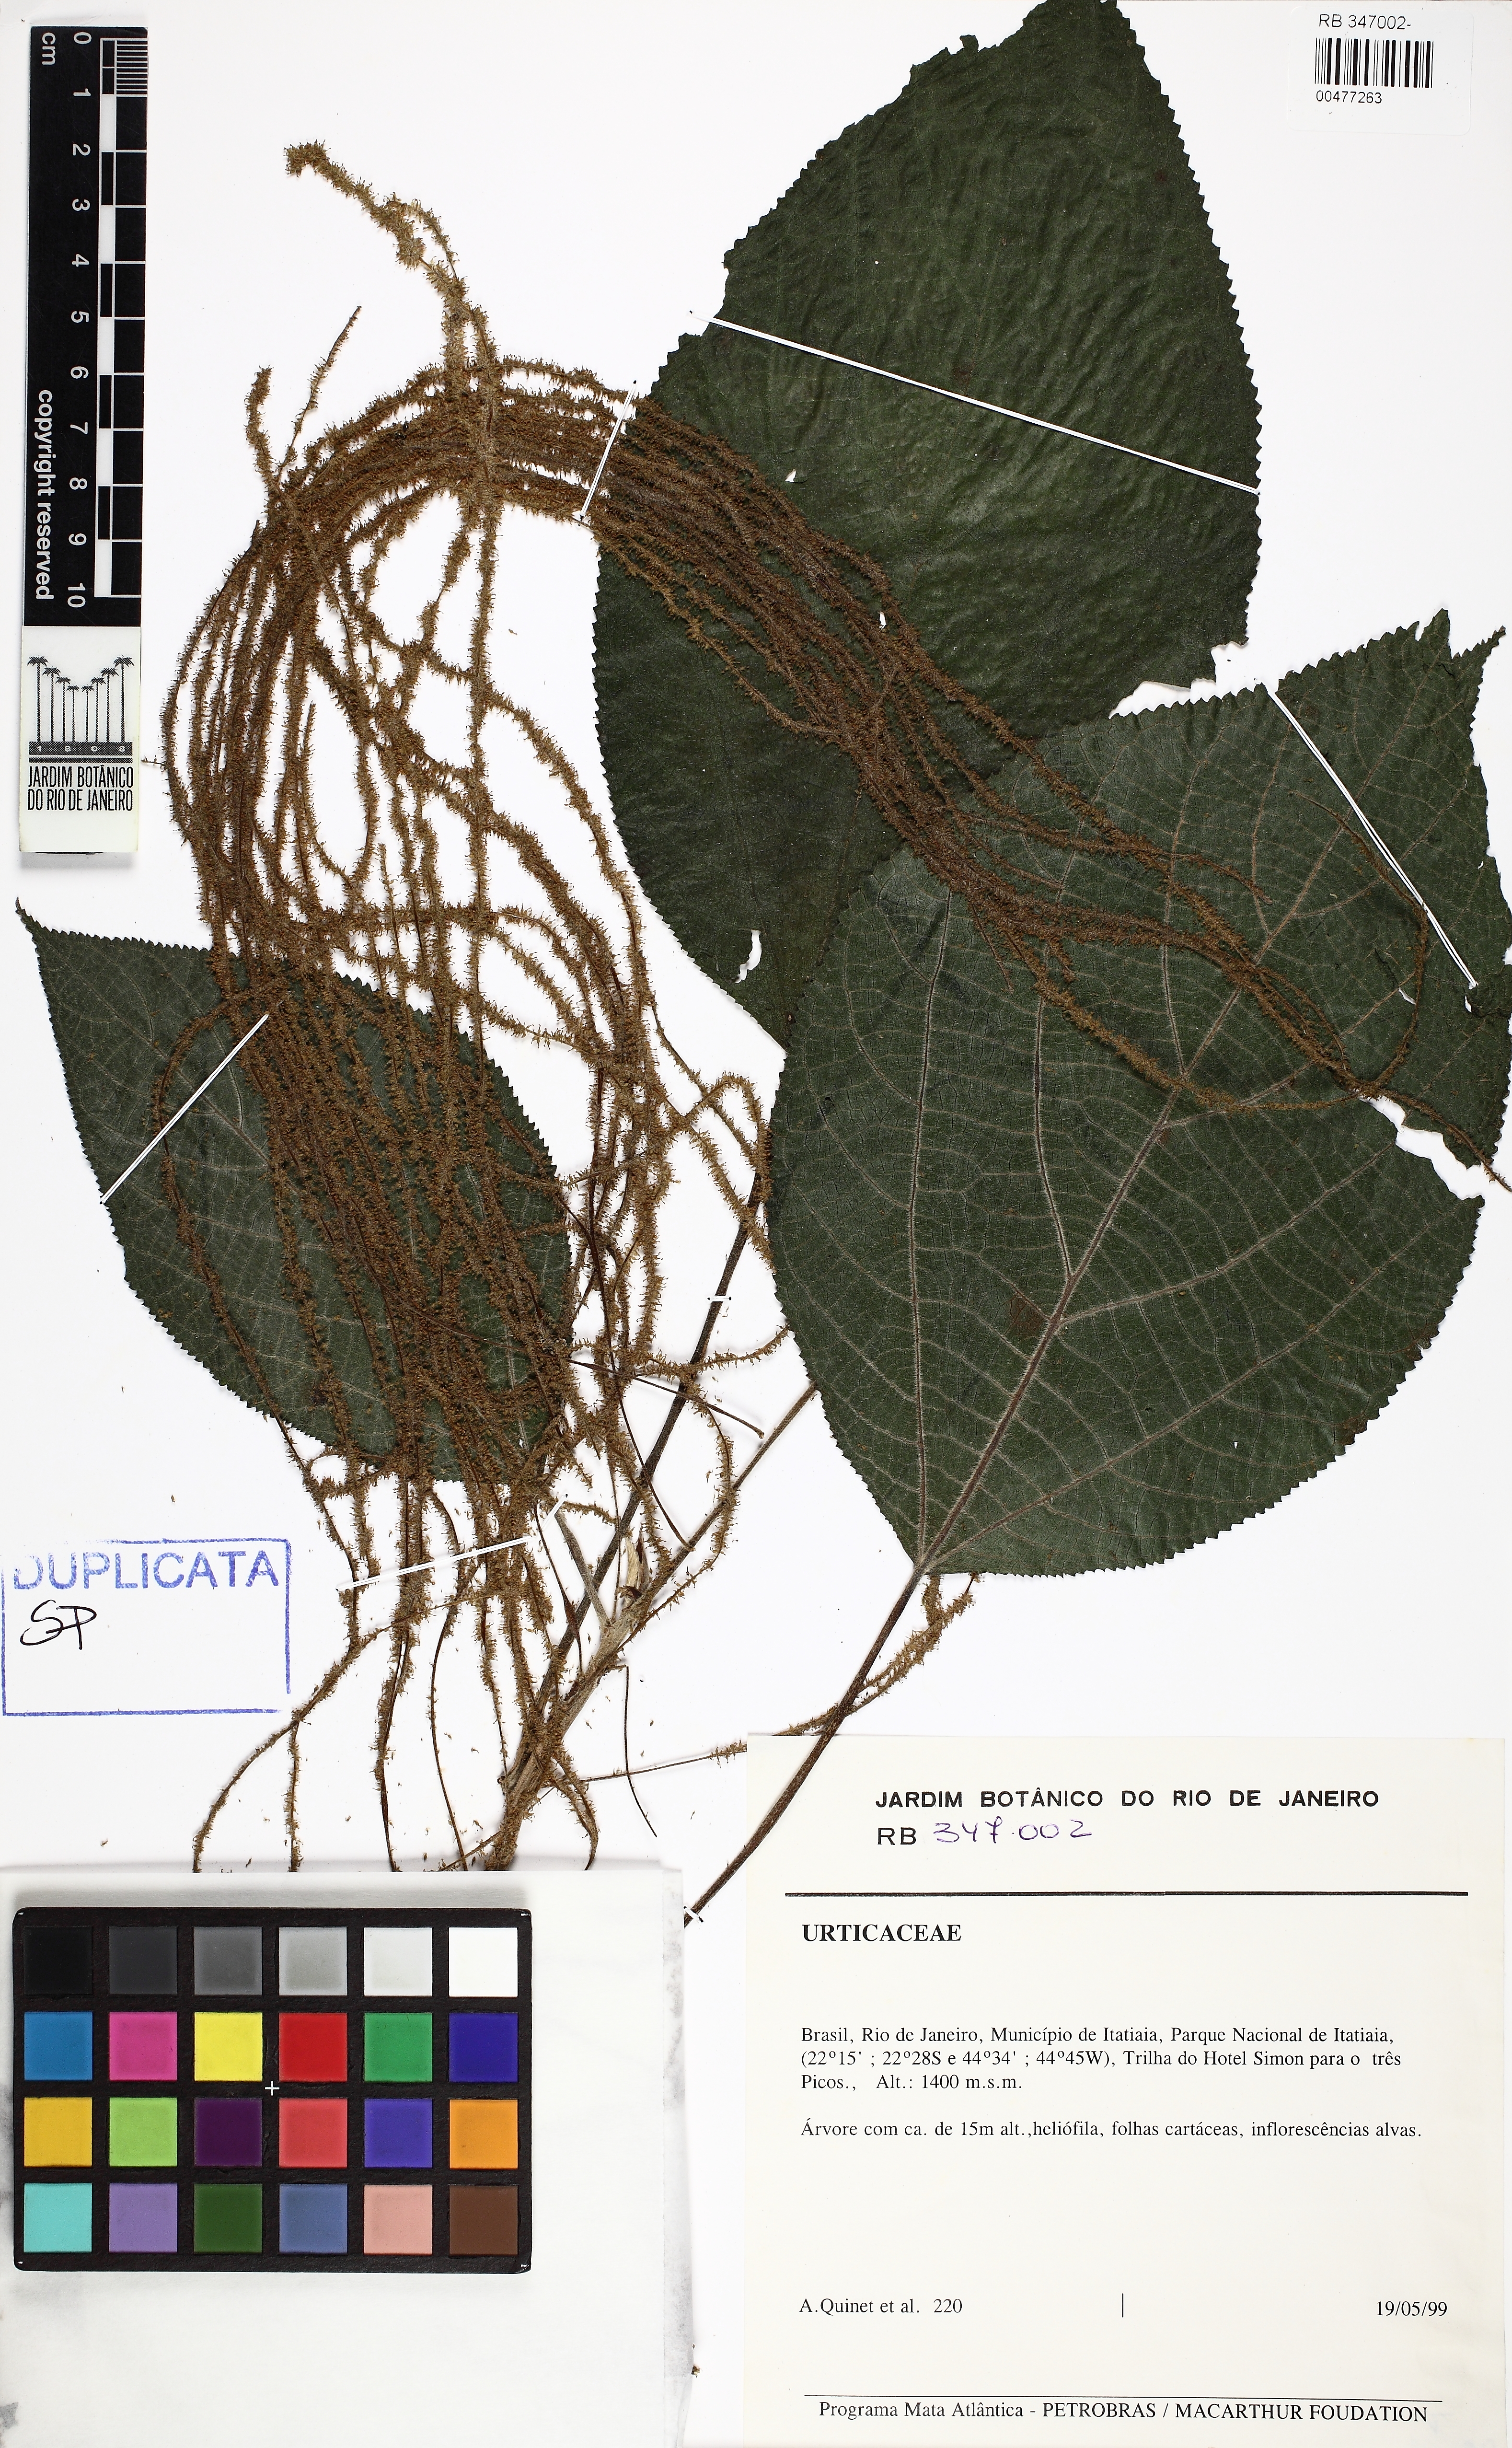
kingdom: Plantae
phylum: Tracheophyta
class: Magnoliopsida
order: Rosales
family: Urticaceae
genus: Myriocarpa
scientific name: Myriocarpa stipitata
